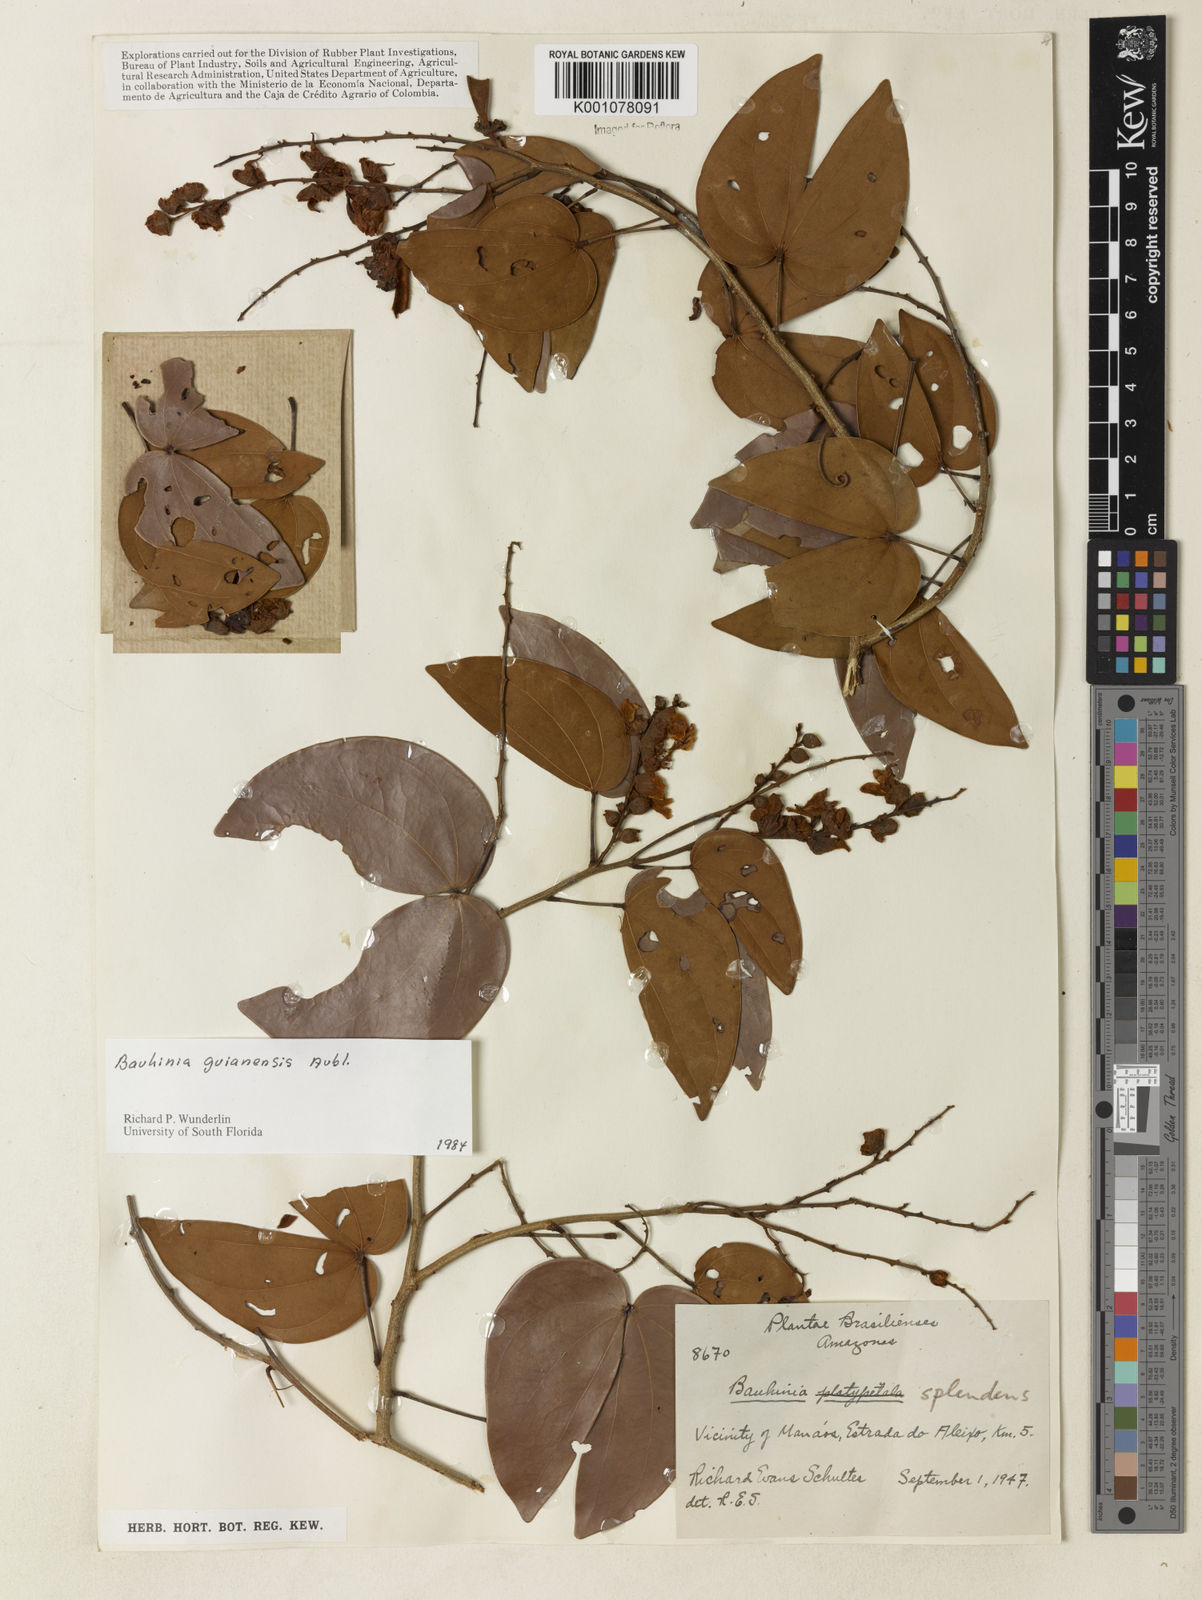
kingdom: Plantae
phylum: Tracheophyta
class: Magnoliopsida
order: Fabales
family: Fabaceae
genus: Schnella
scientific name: Schnella guianensis
